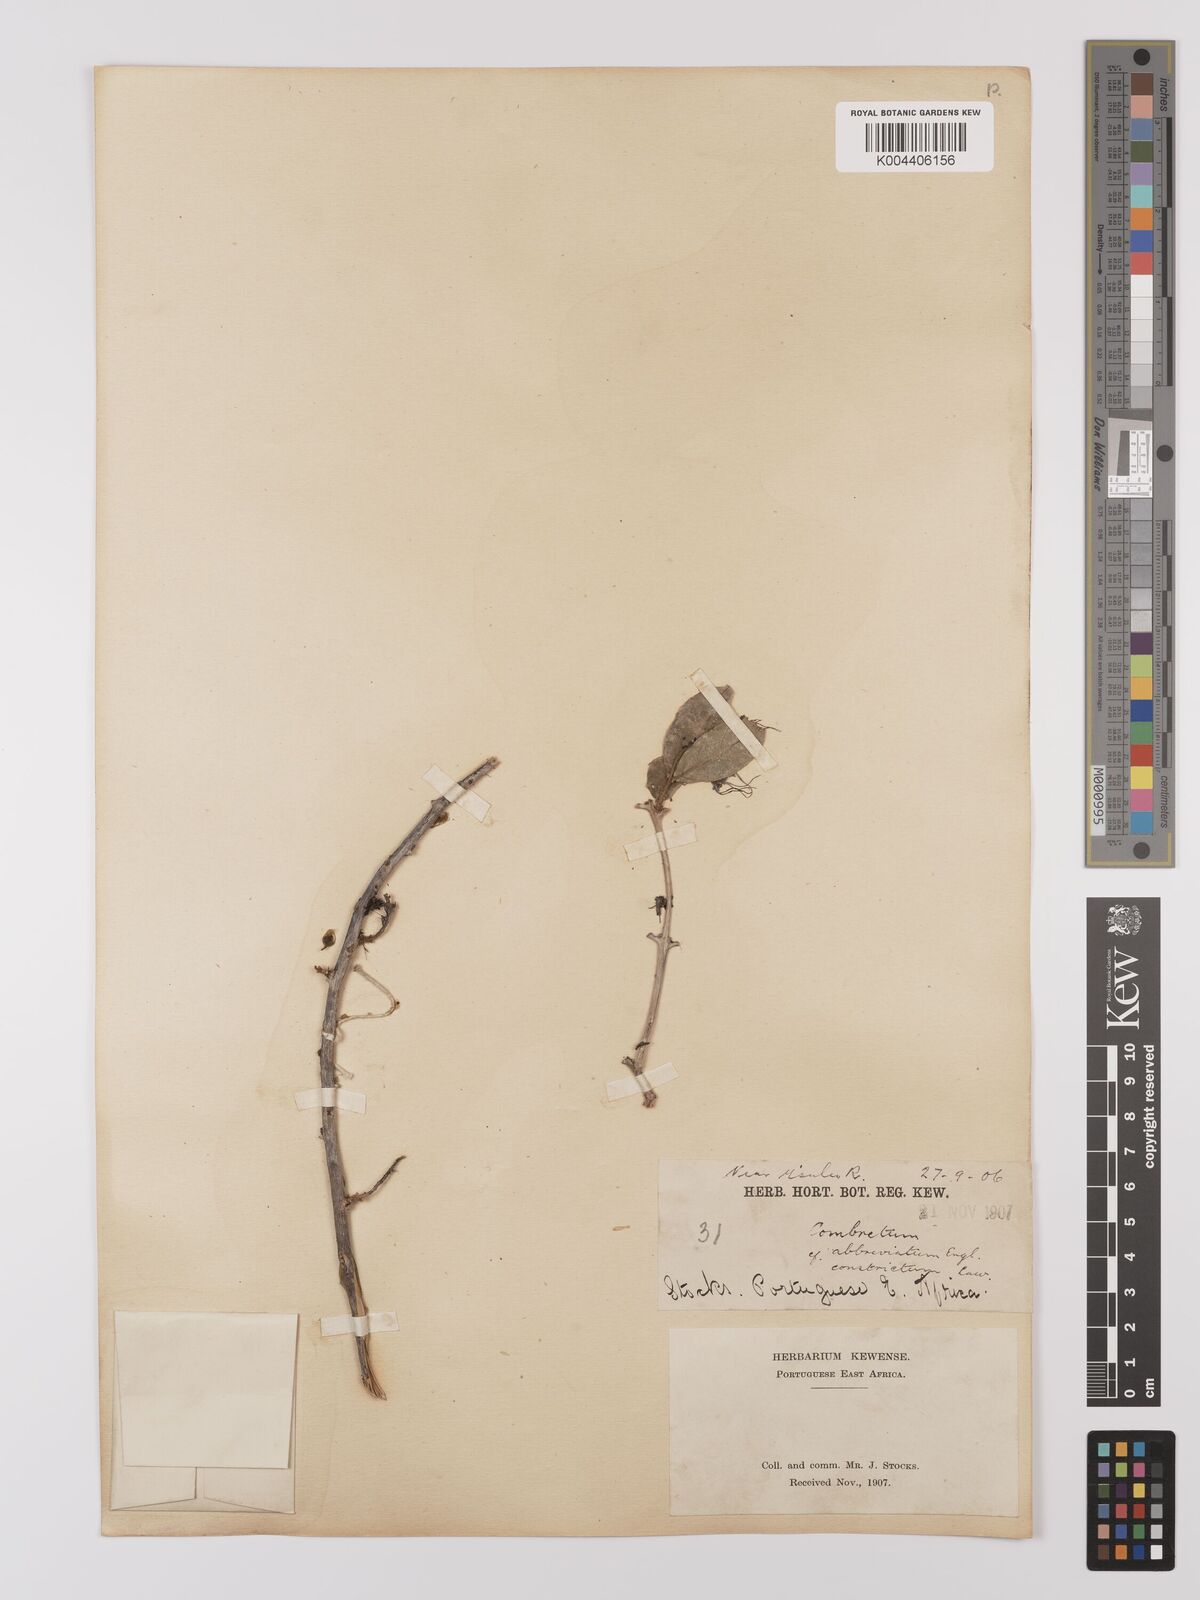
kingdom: Plantae
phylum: Tracheophyta
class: Magnoliopsida
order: Myrtales
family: Combretaceae
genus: Combretum
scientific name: Combretum
